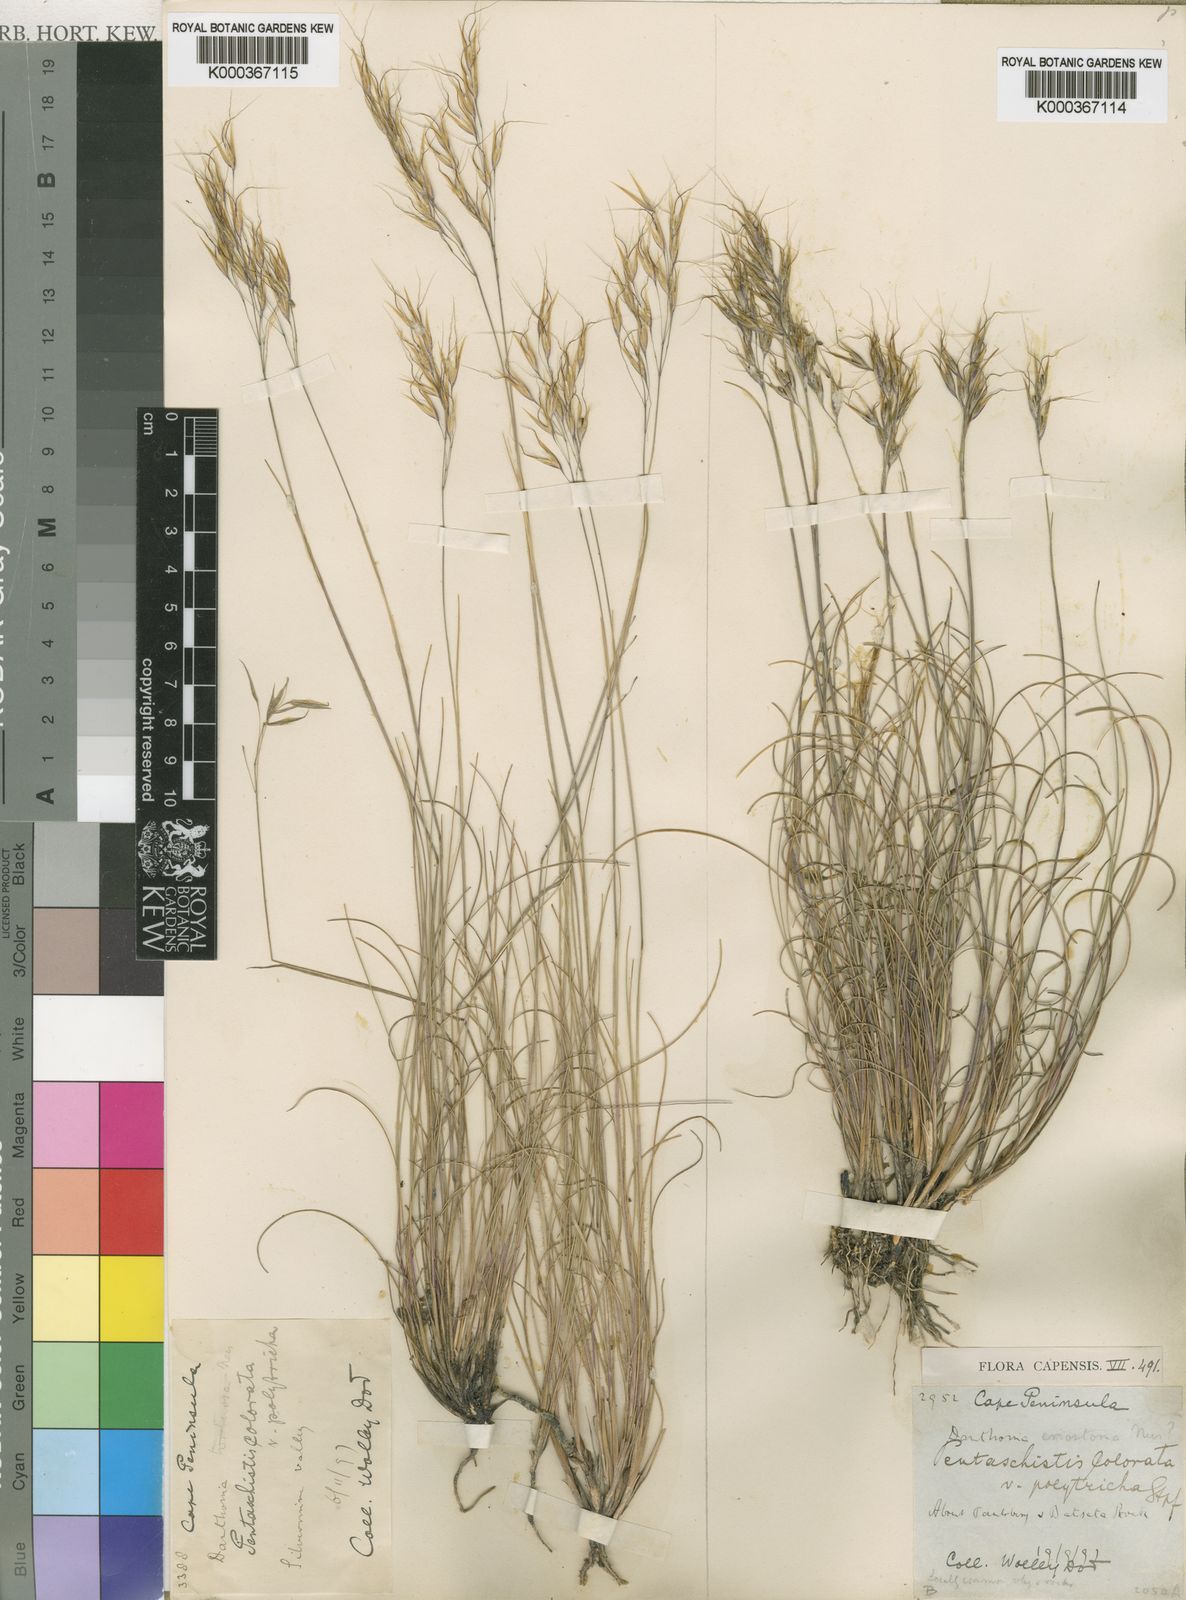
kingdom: Plantae
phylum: Tracheophyta
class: Liliopsida
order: Poales
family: Poaceae
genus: Pentameris
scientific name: Pentameris colorata
